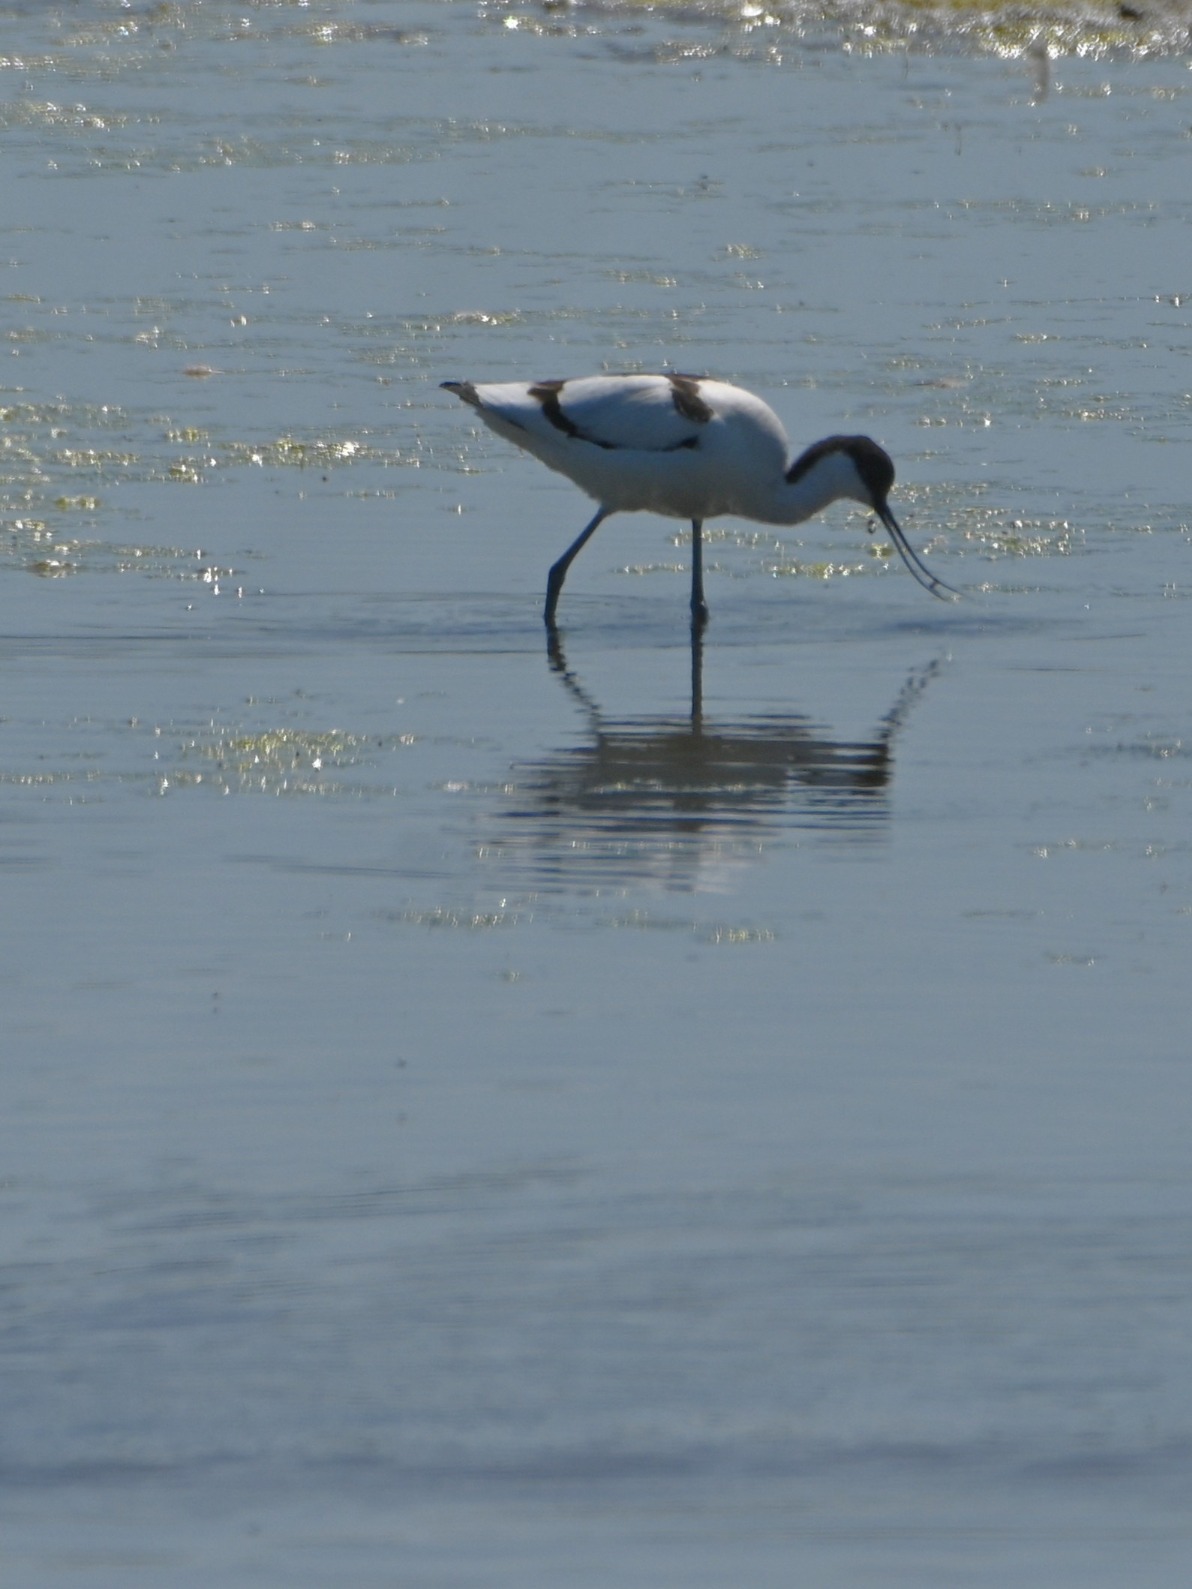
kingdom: Animalia
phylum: Chordata
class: Aves
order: Charadriiformes
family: Recurvirostridae
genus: Recurvirostra
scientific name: Recurvirostra avosetta
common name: Klyde
